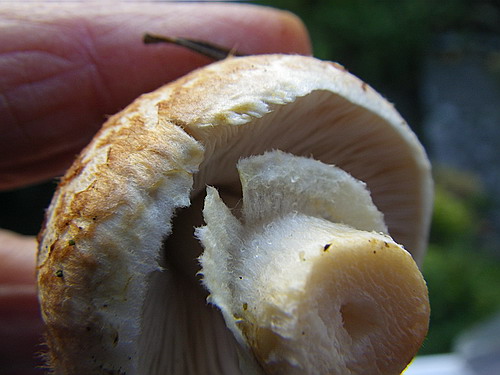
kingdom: Fungi
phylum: Basidiomycota
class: Agaricomycetes
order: Agaricales
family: Agaricaceae
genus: Agaricus
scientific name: Agaricus brunneolus
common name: purpur-champignon
